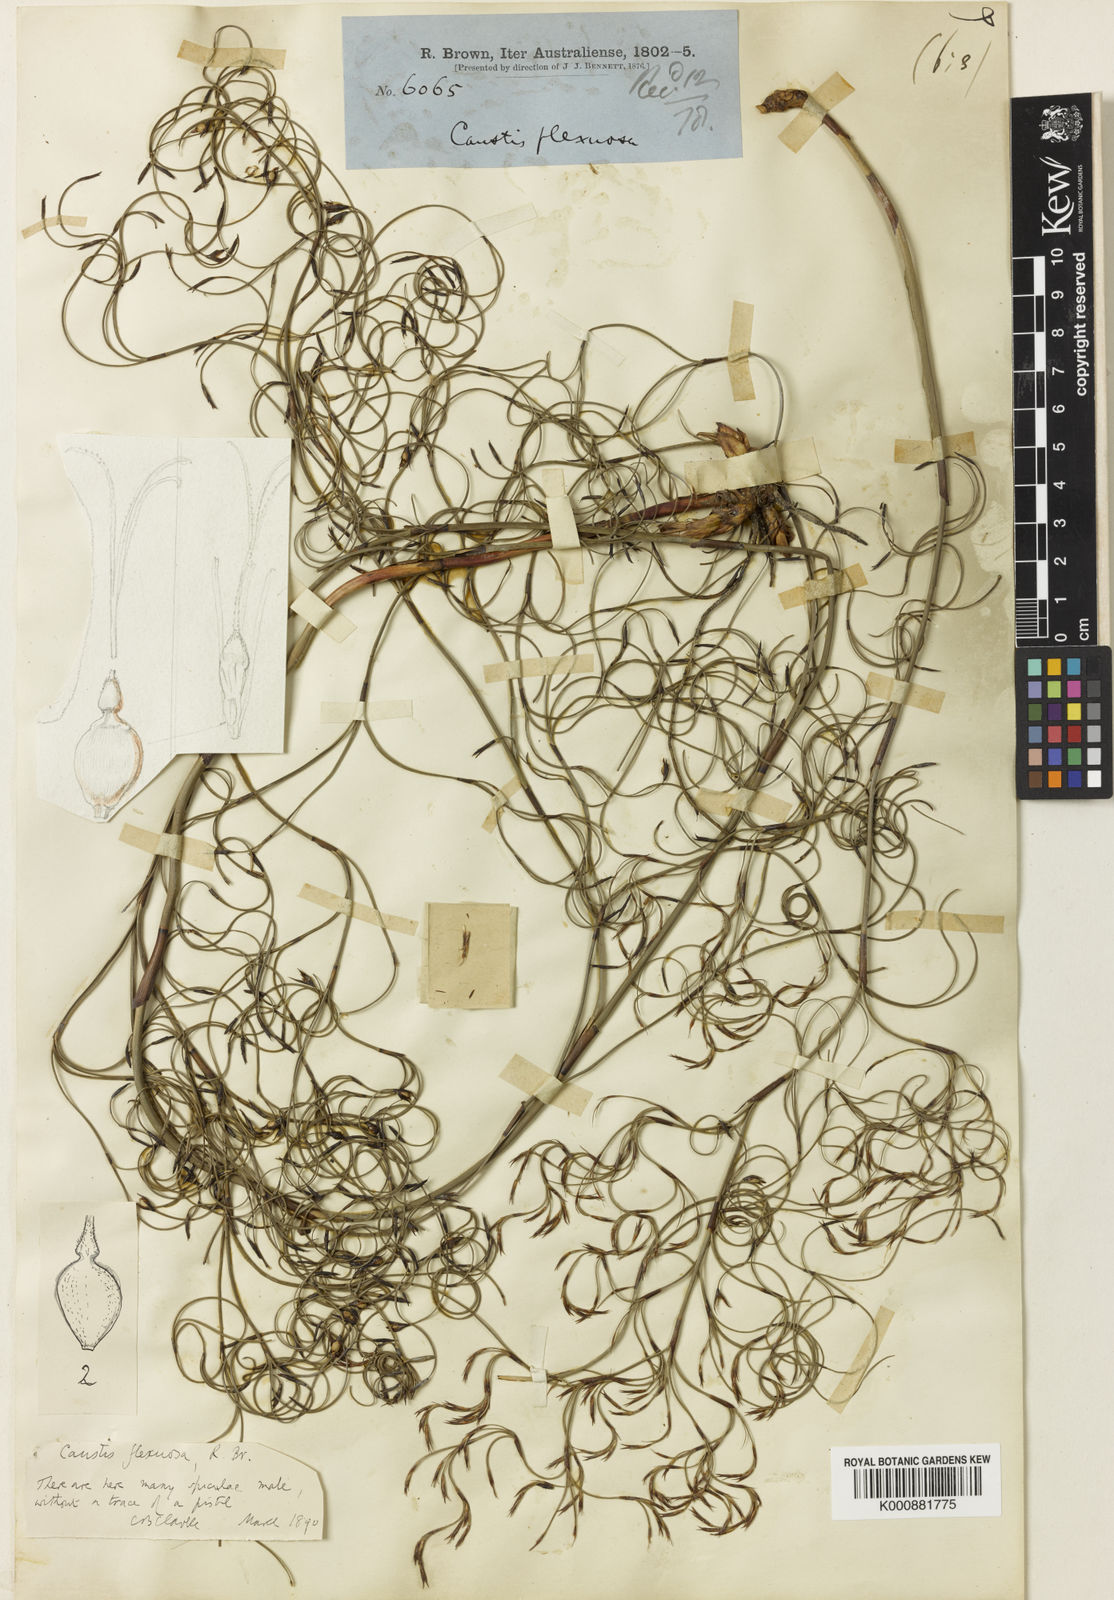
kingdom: Plantae
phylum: Tracheophyta
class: Liliopsida
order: Poales
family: Cyperaceae
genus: Caustis
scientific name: Caustis flexuosa
